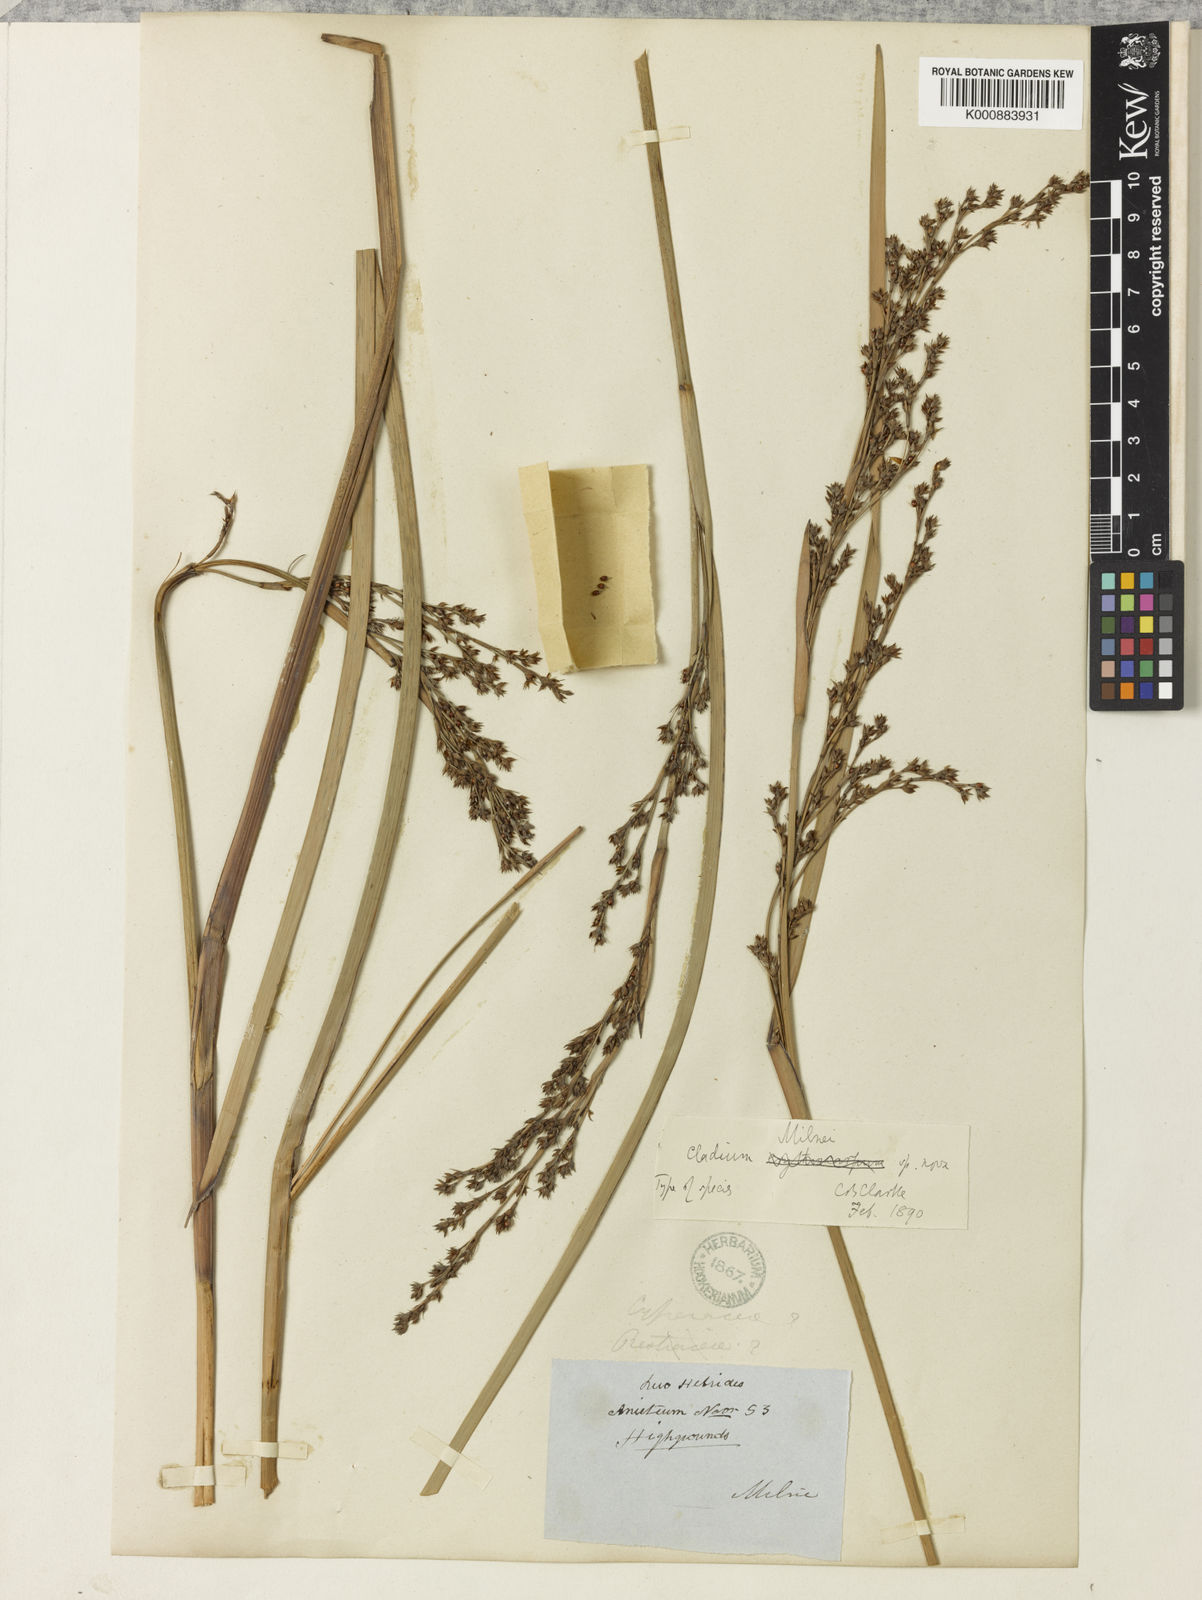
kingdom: Plantae
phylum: Tracheophyta
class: Liliopsida
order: Poales
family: Cyperaceae
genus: Machaerina
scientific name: Machaerina milnei
